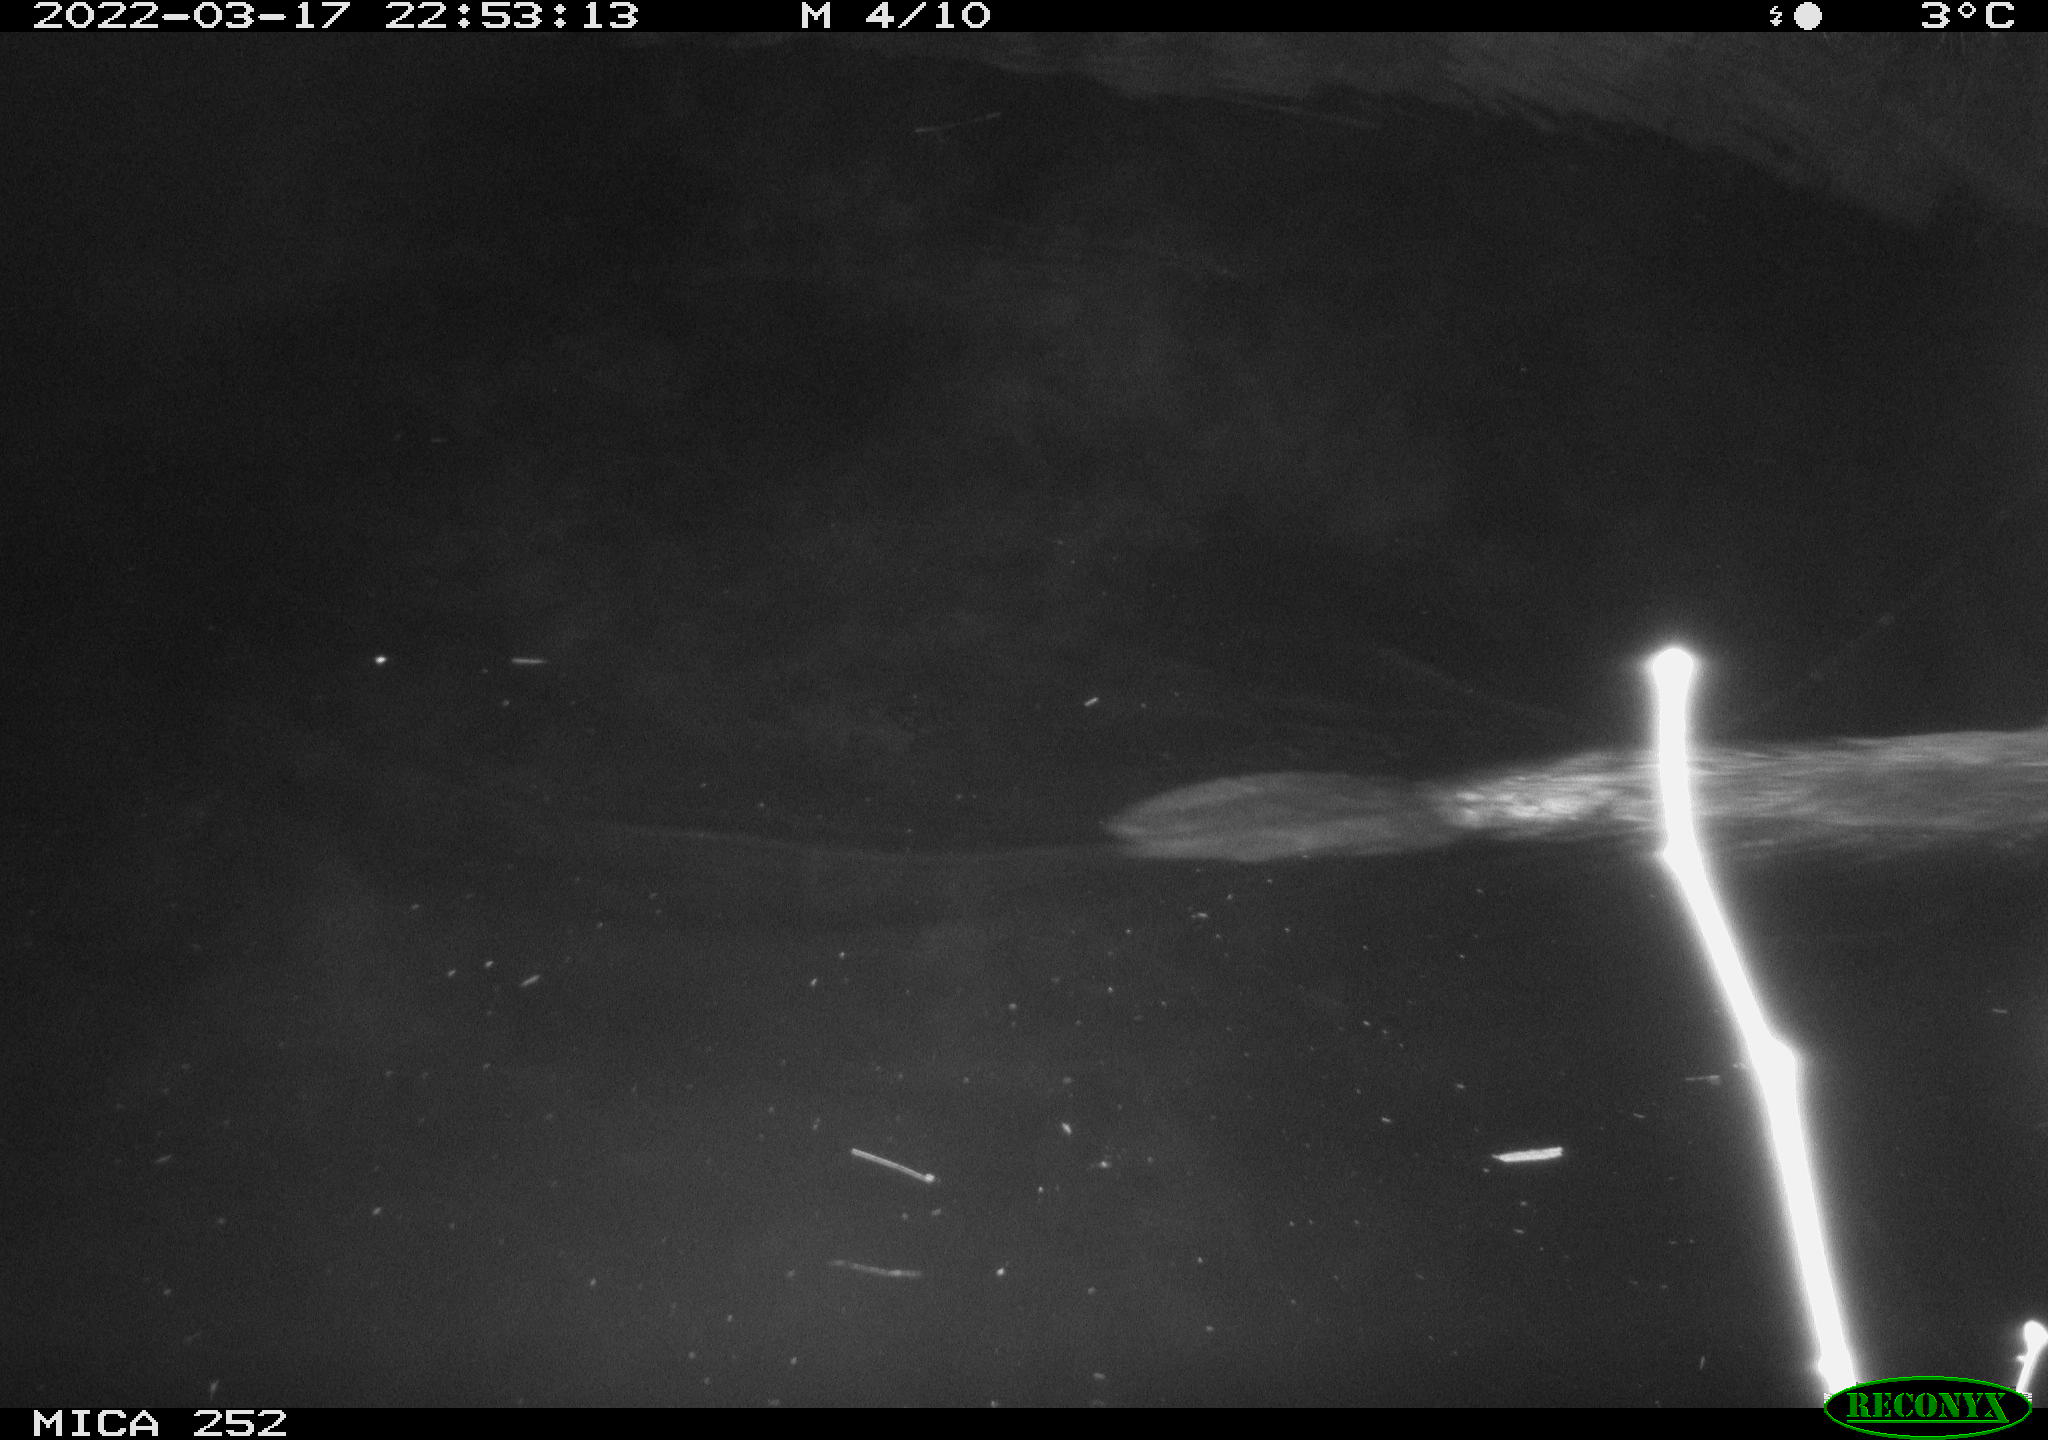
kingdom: Animalia
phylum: Chordata
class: Mammalia
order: Rodentia
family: Castoridae
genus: Castor
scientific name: Castor fiber
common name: Eurasian beaver
